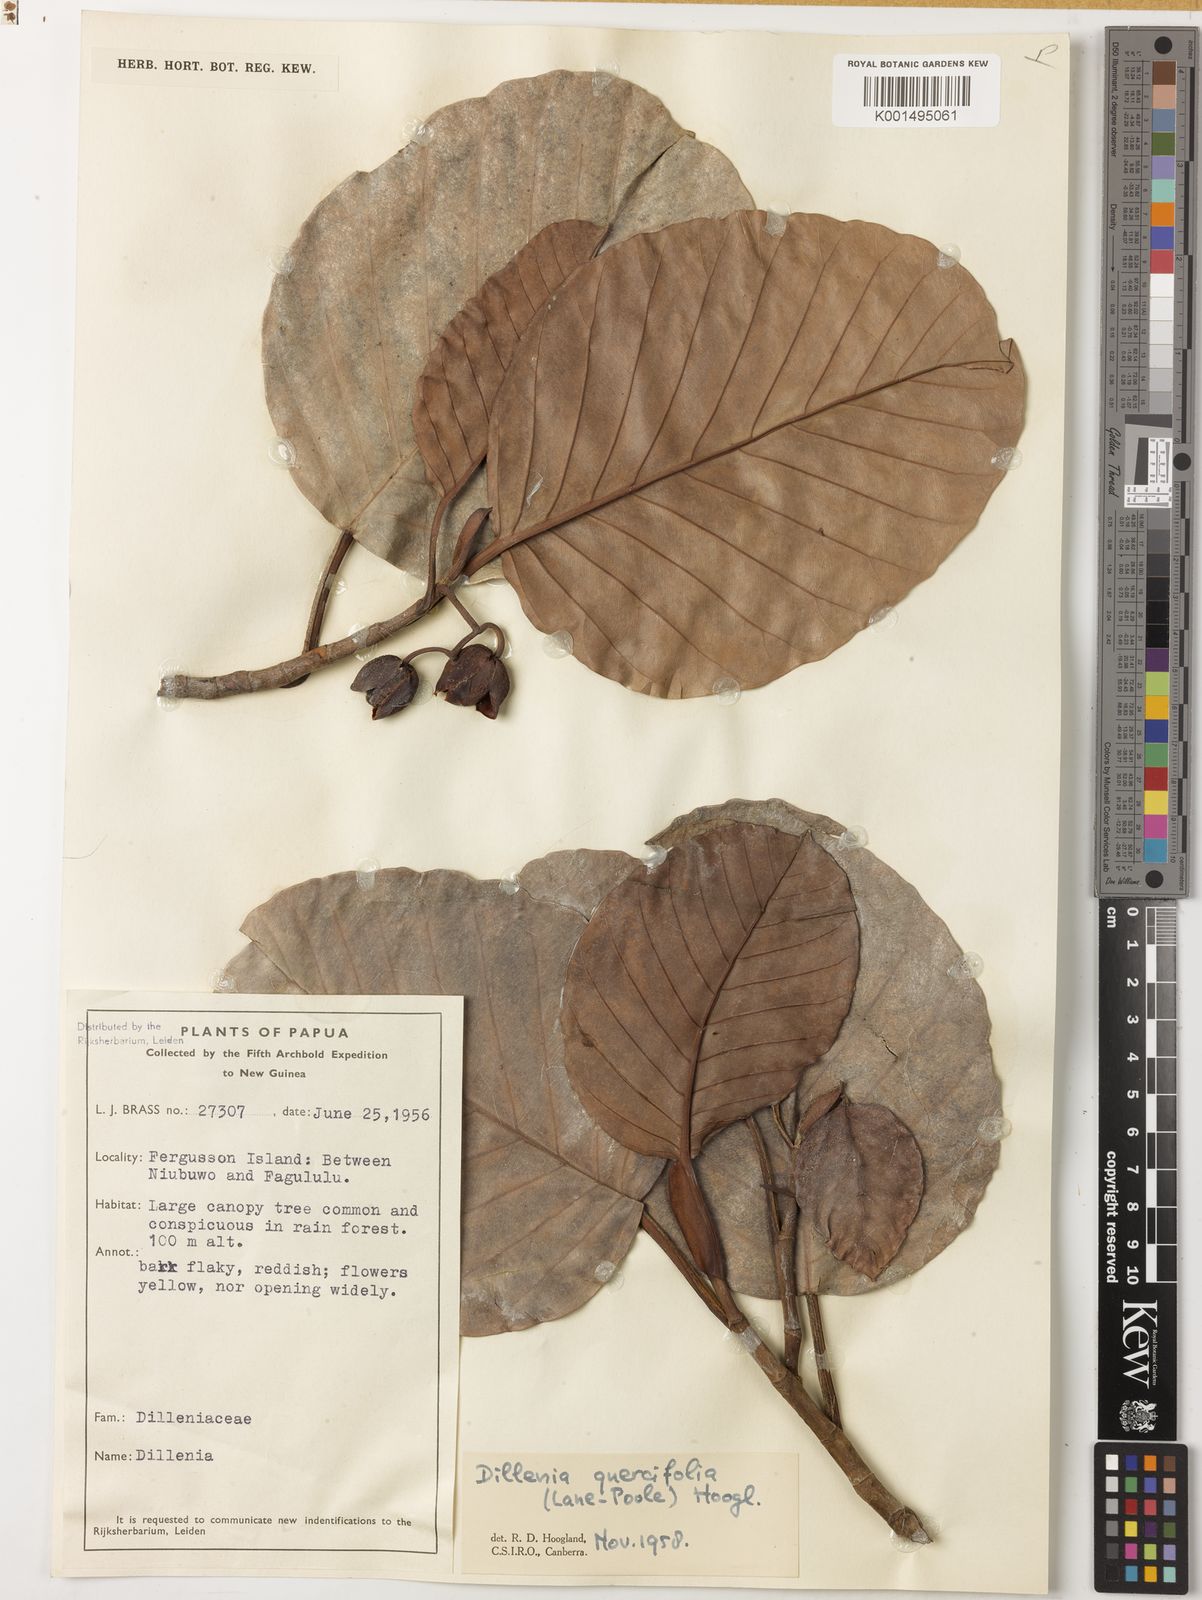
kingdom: Plantae
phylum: Tracheophyta
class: Magnoliopsida
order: Dilleniales
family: Dilleniaceae
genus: Dillenia
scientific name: Dillenia quercifolia
